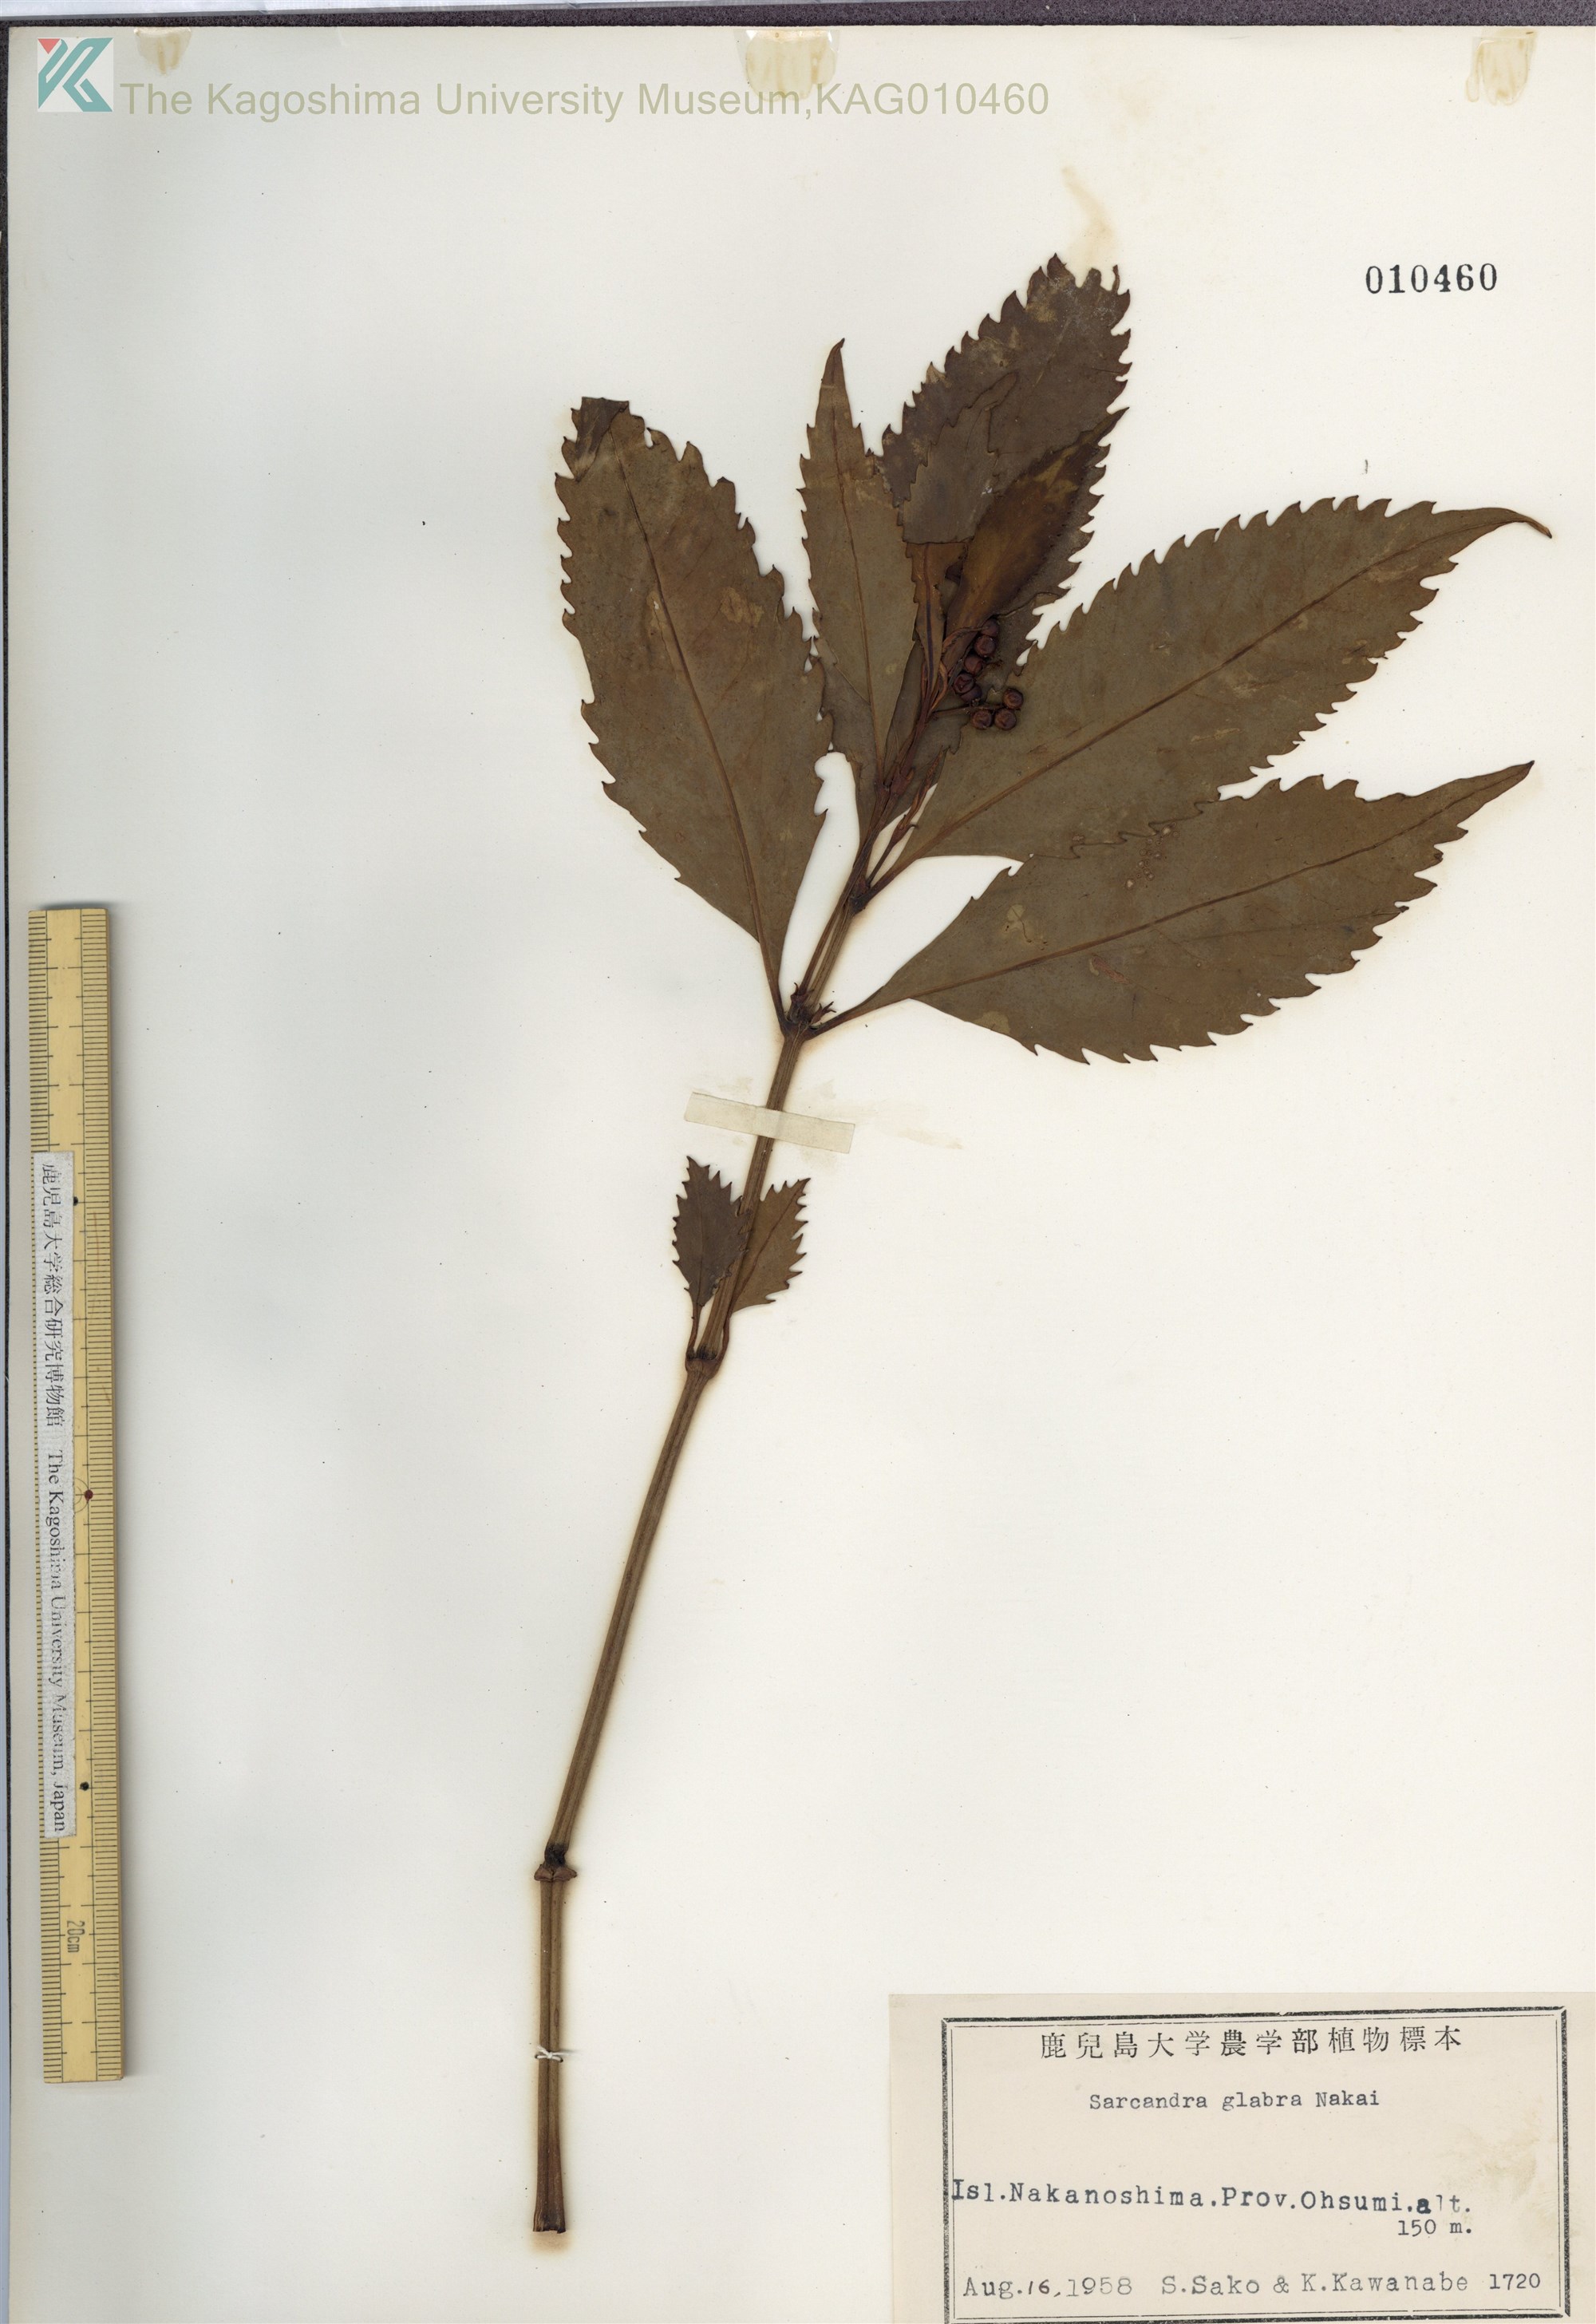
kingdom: Plantae
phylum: Tracheophyta
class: Magnoliopsida
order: Chloranthales
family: Chloranthaceae
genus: Sarcandra
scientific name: Sarcandra glabra
